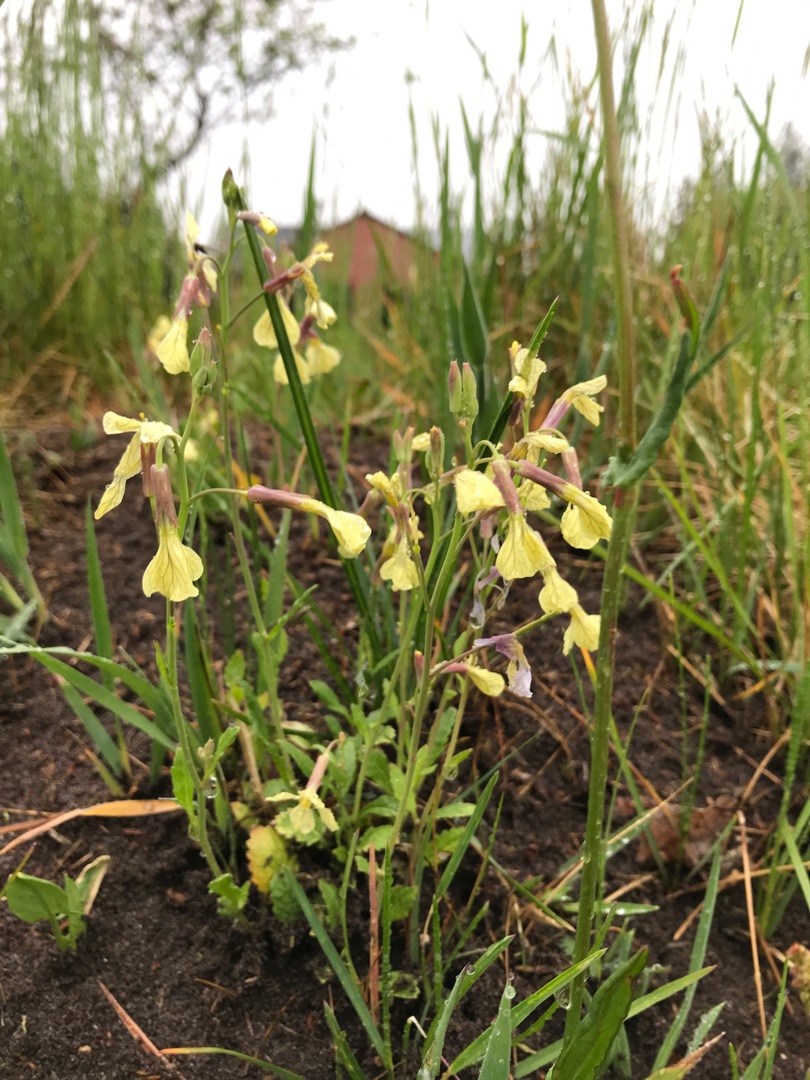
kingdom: Plantae
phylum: Tracheophyta
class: Magnoliopsida
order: Brassicales
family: Brassicaceae
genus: Raphanus
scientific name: Raphanus raphanistrum
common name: Kiddike
